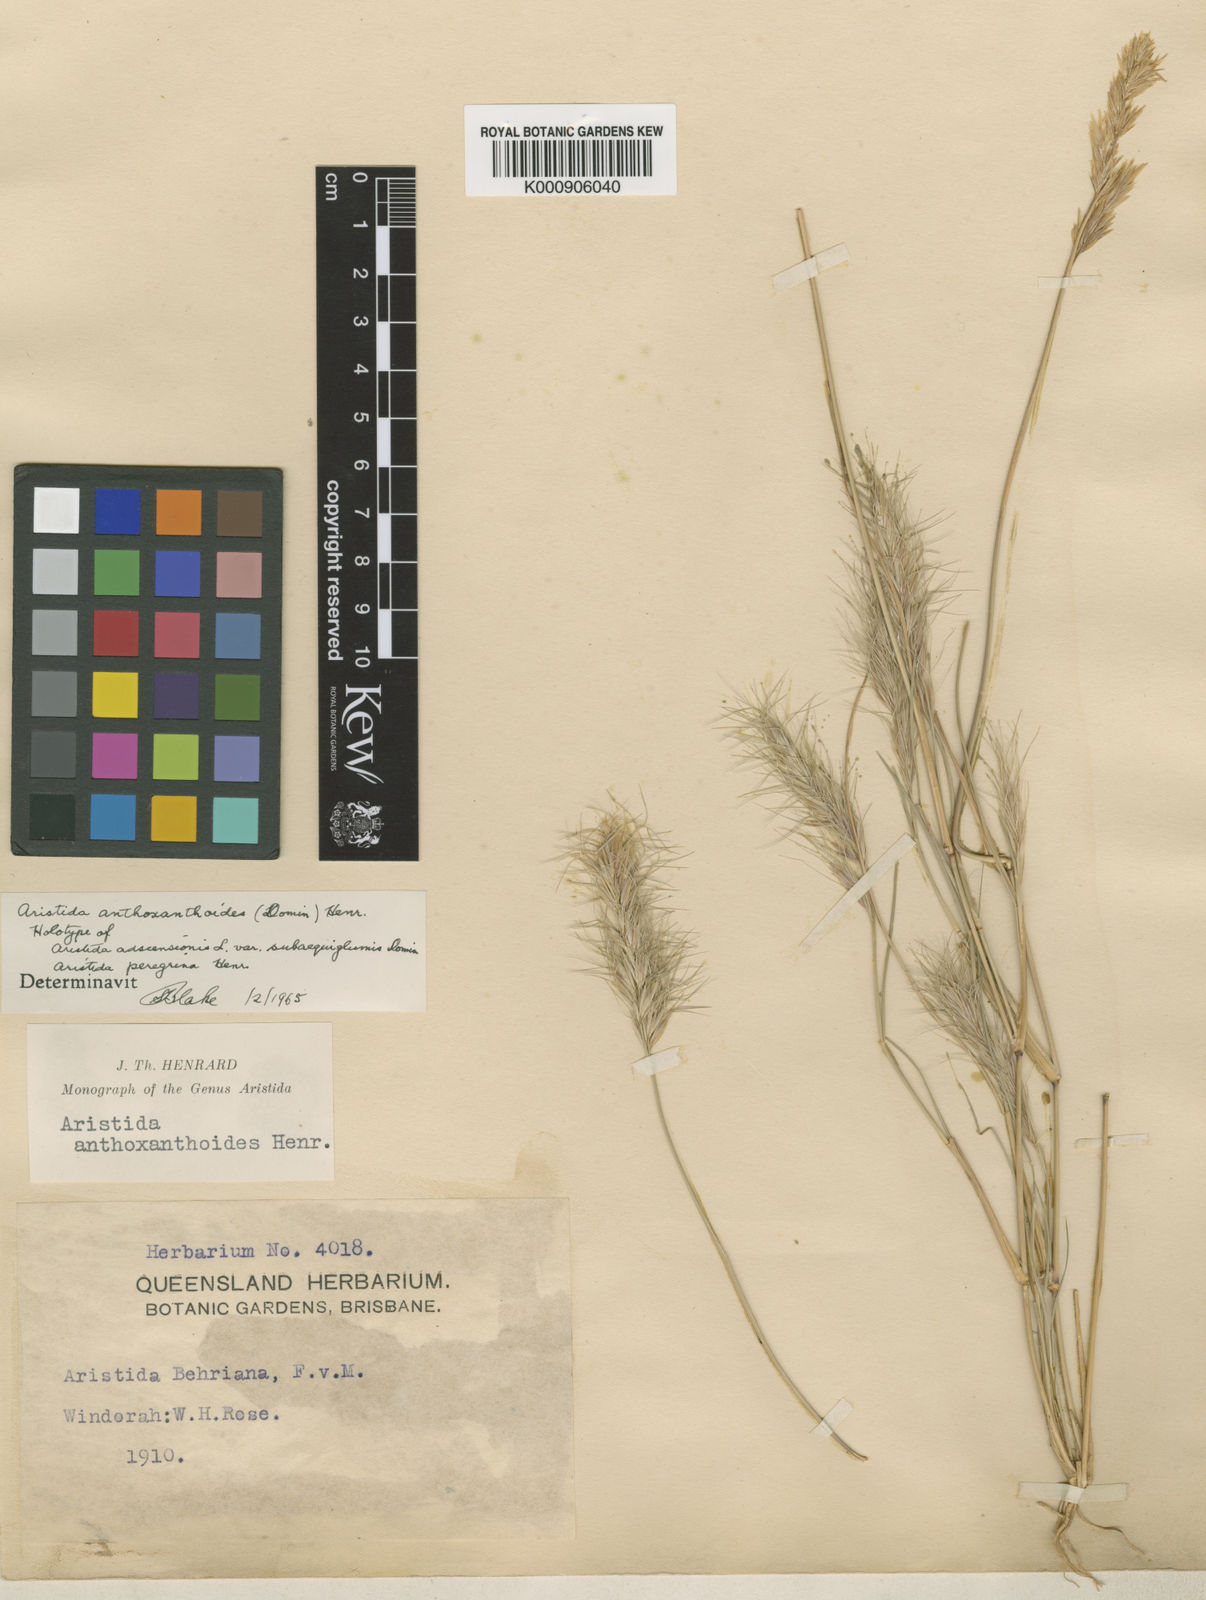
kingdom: Plantae
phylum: Tracheophyta
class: Liliopsida
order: Poales
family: Poaceae
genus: Aristida
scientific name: Aristida anthoxanthoides
